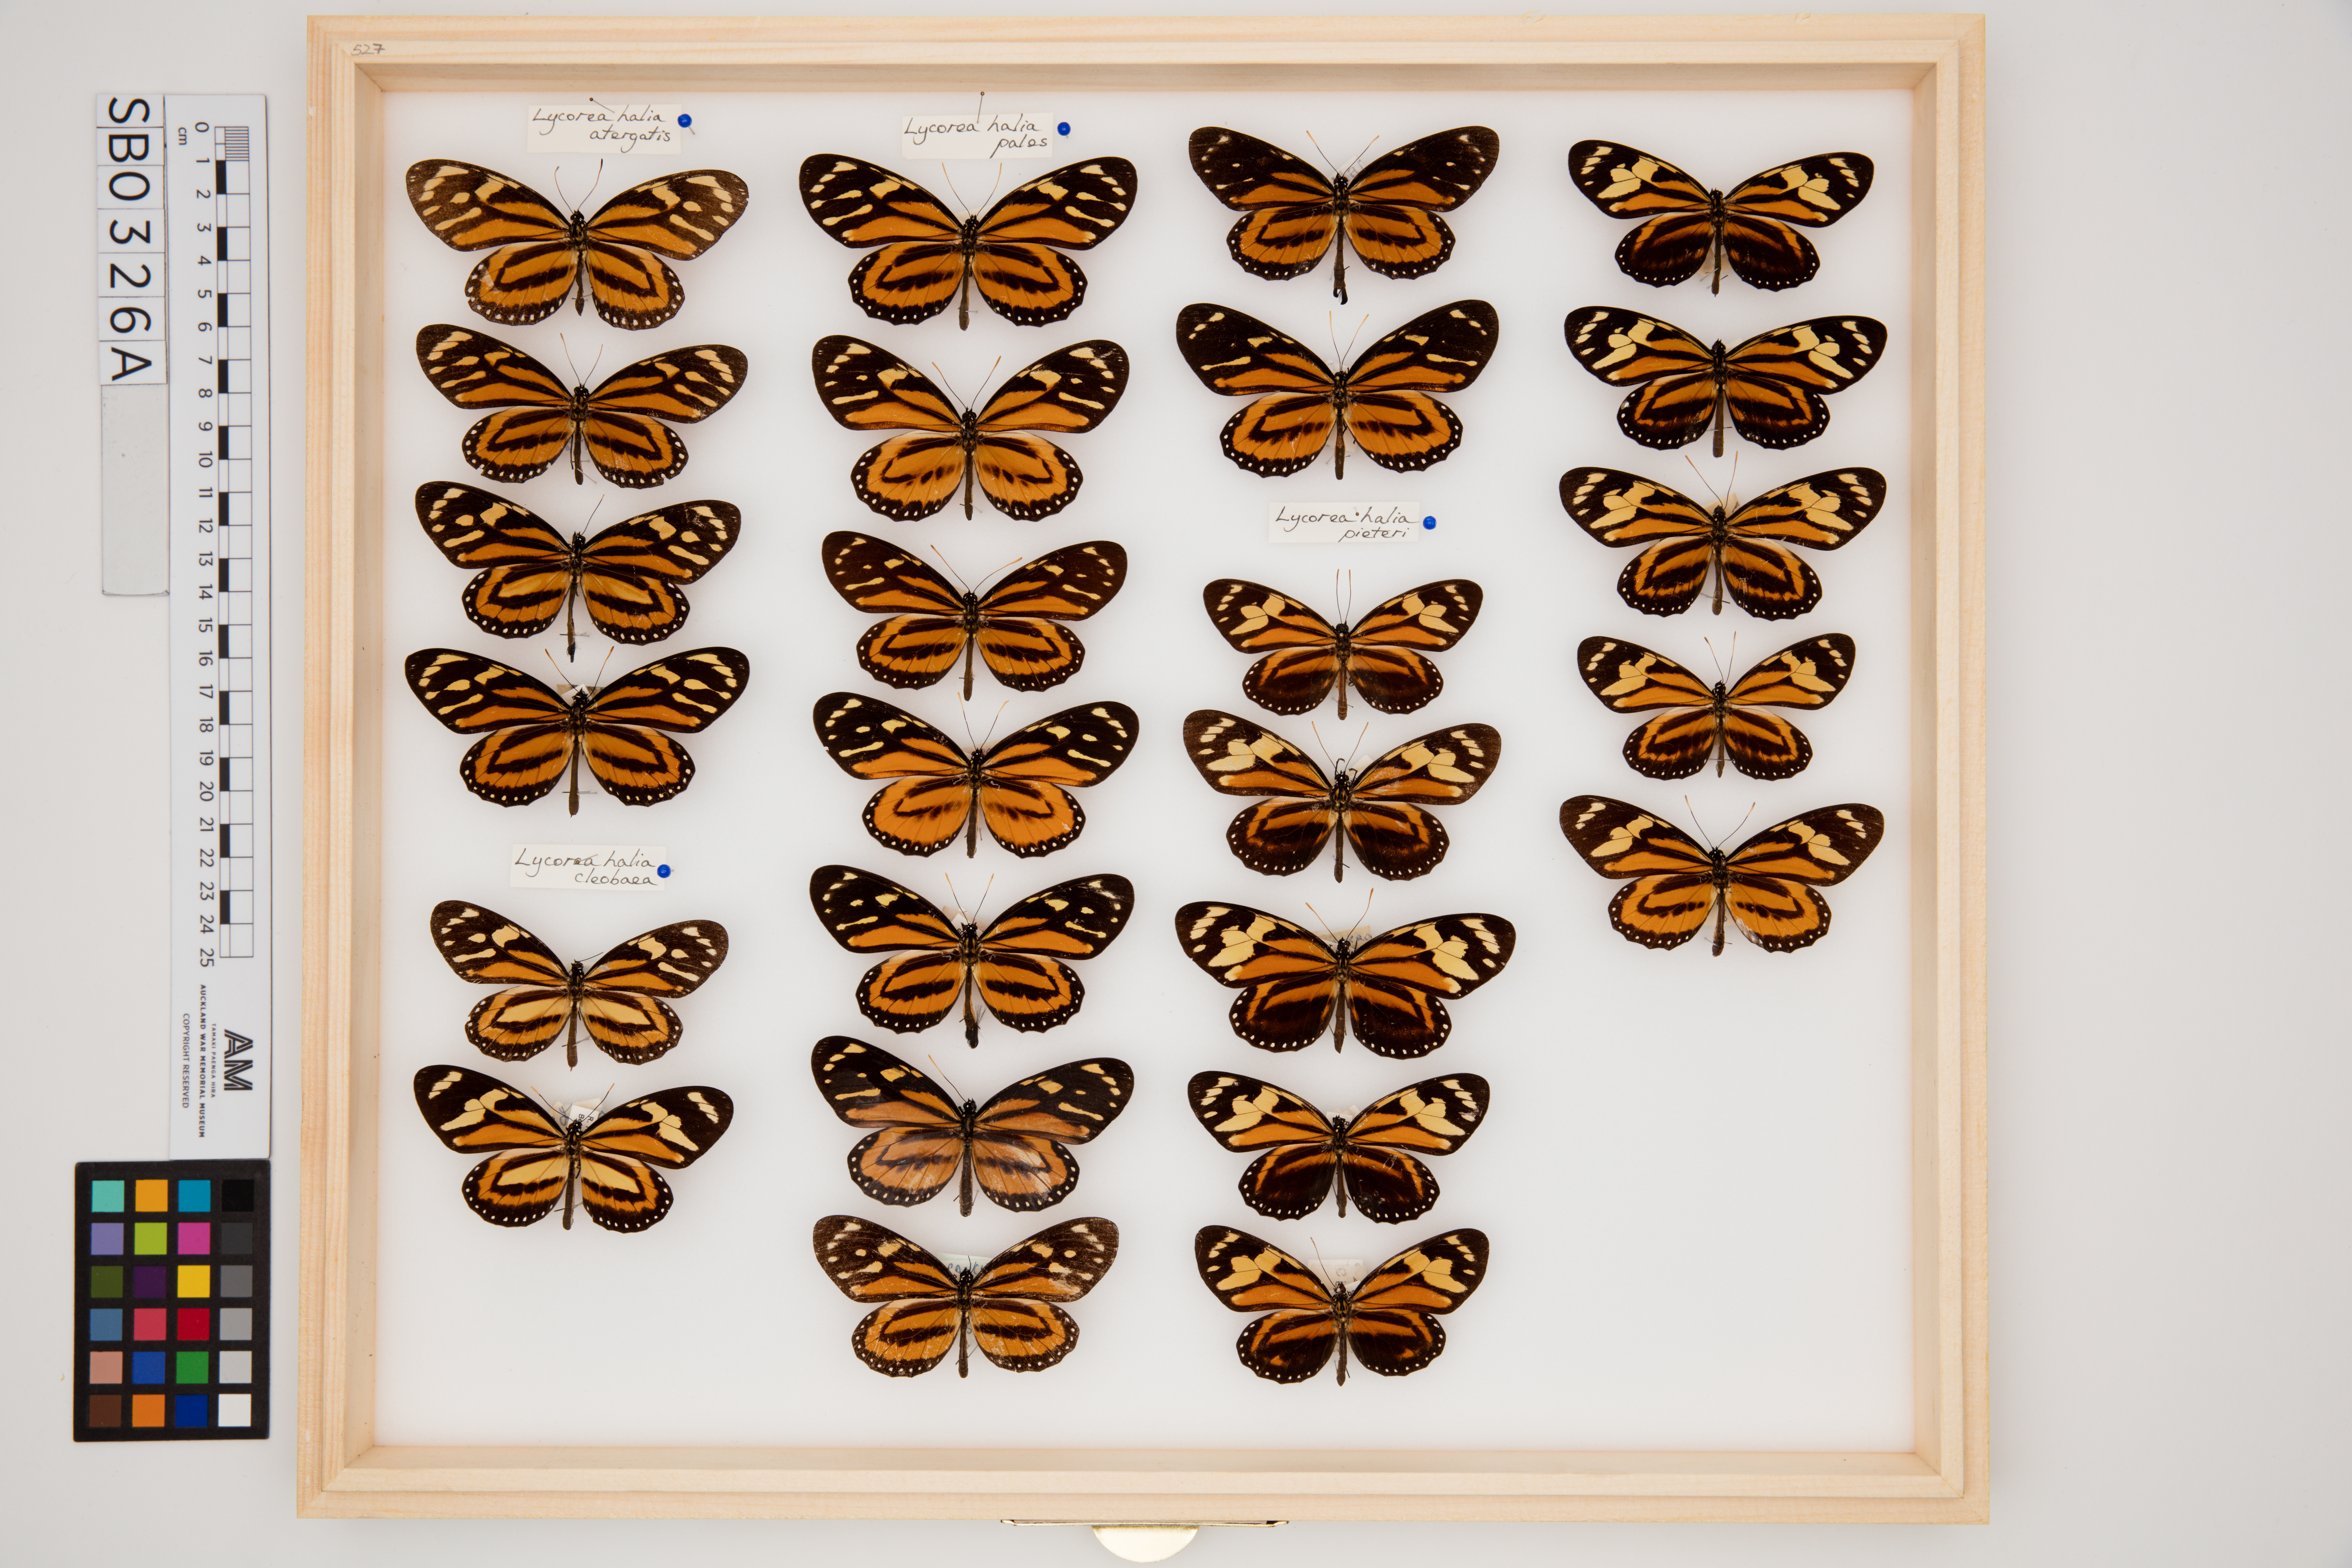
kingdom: Animalia
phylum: Arthropoda
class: Insecta
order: Lepidoptera
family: Nymphalidae
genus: Lycorea
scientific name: Lycorea cleobaea
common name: Tiger mimic-queen
